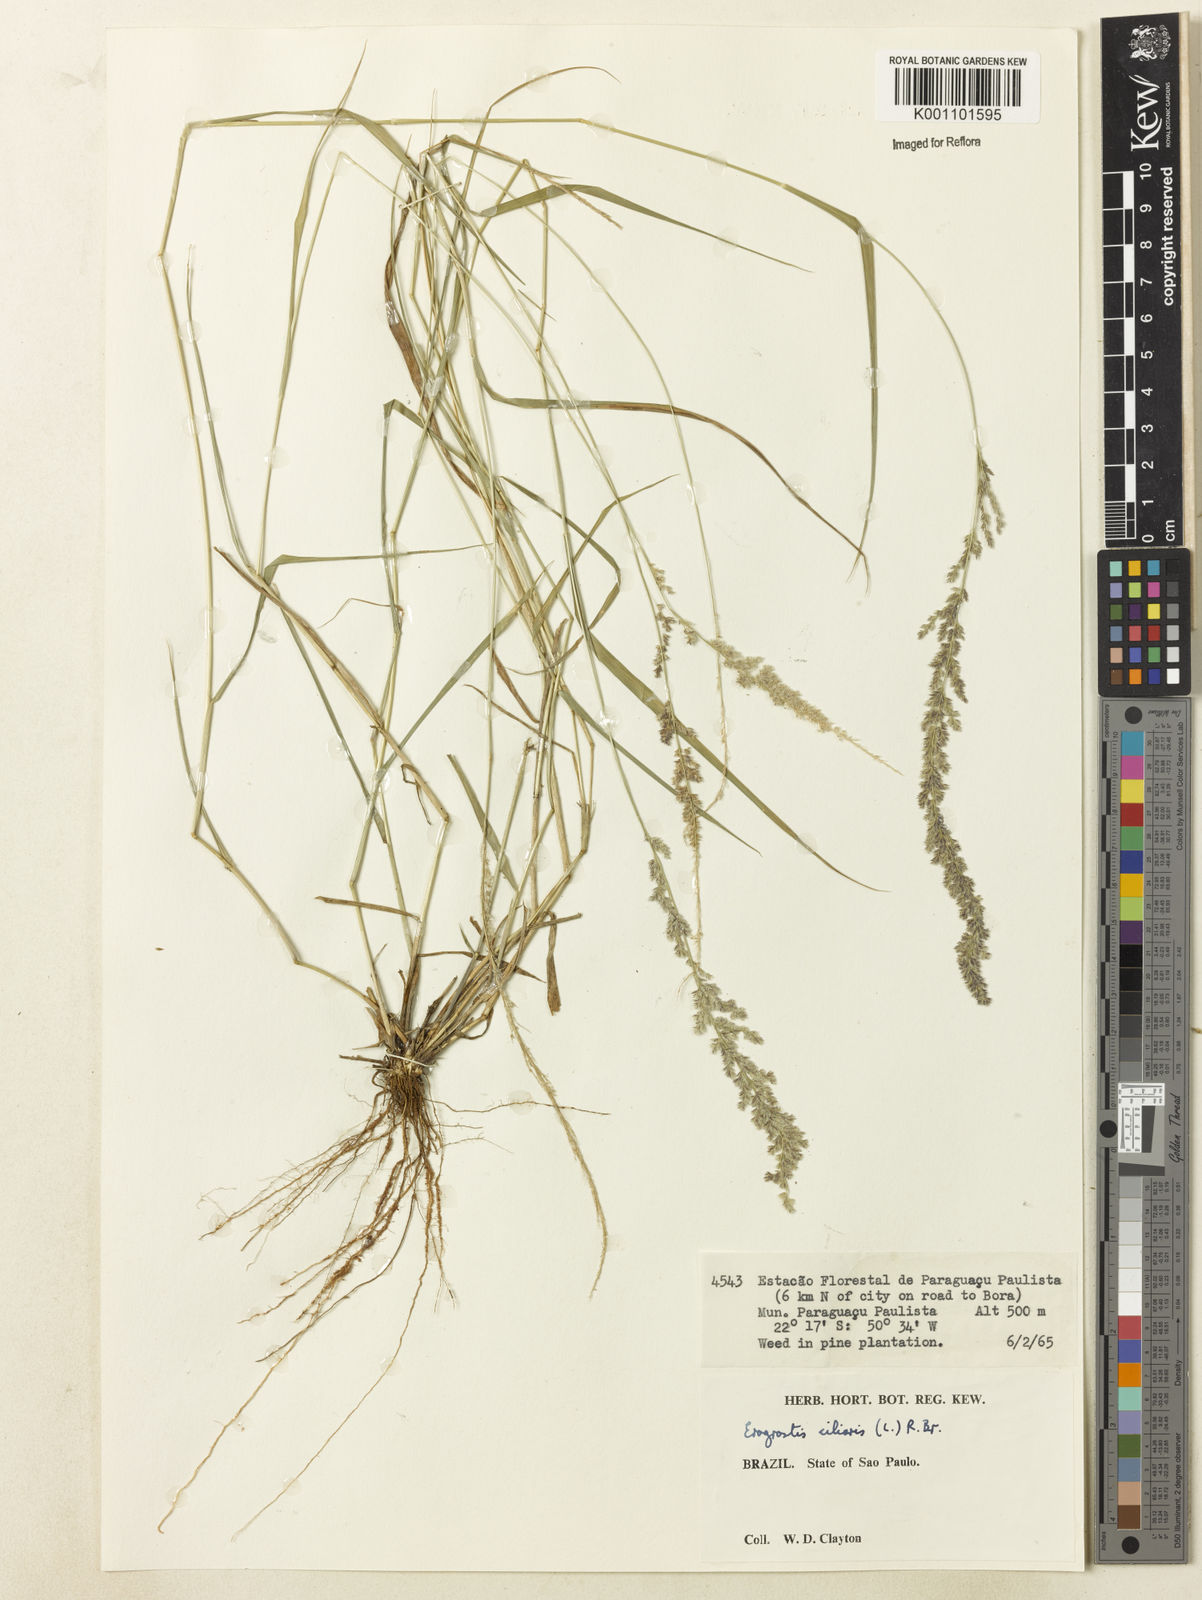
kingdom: Plantae
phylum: Tracheophyta
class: Liliopsida
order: Poales
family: Poaceae
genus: Eragrostis
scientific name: Eragrostis ciliaris
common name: Gophertail lovegrass
